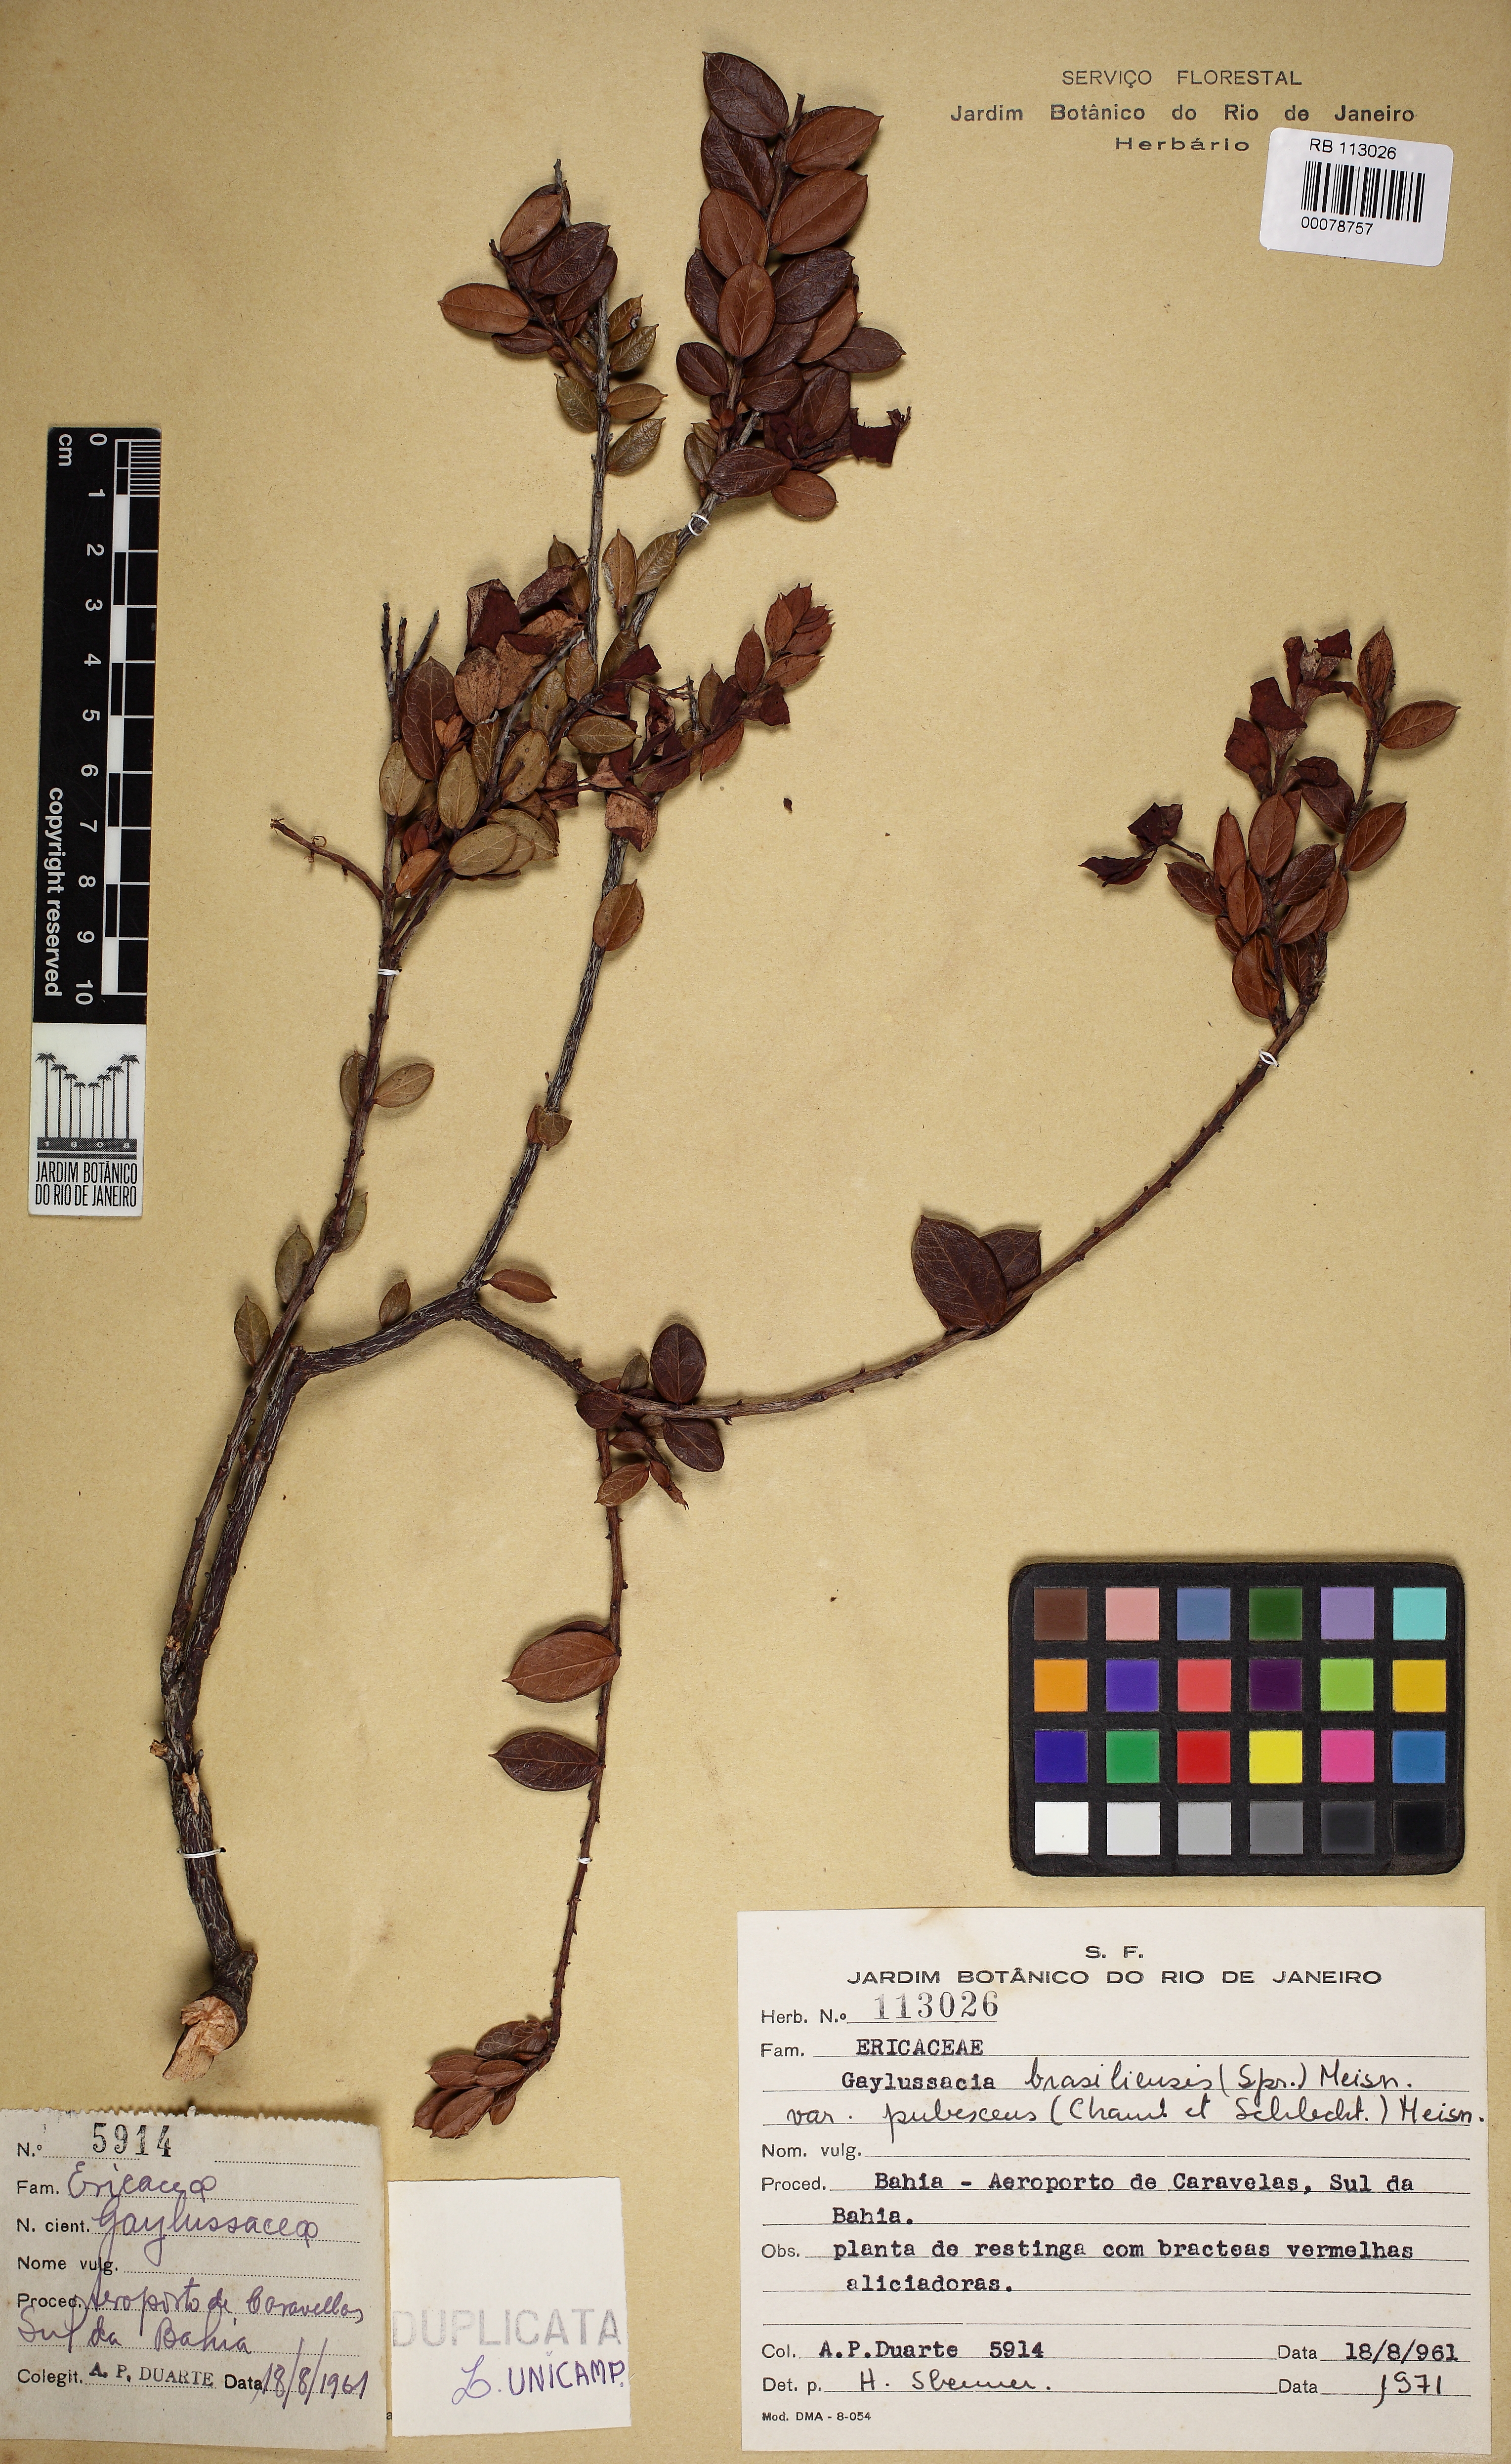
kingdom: Plantae
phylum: Tracheophyta
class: Magnoliopsida
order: Ericales
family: Ericaceae
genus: Gaylussacia
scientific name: Gaylussacia brasiliensis
